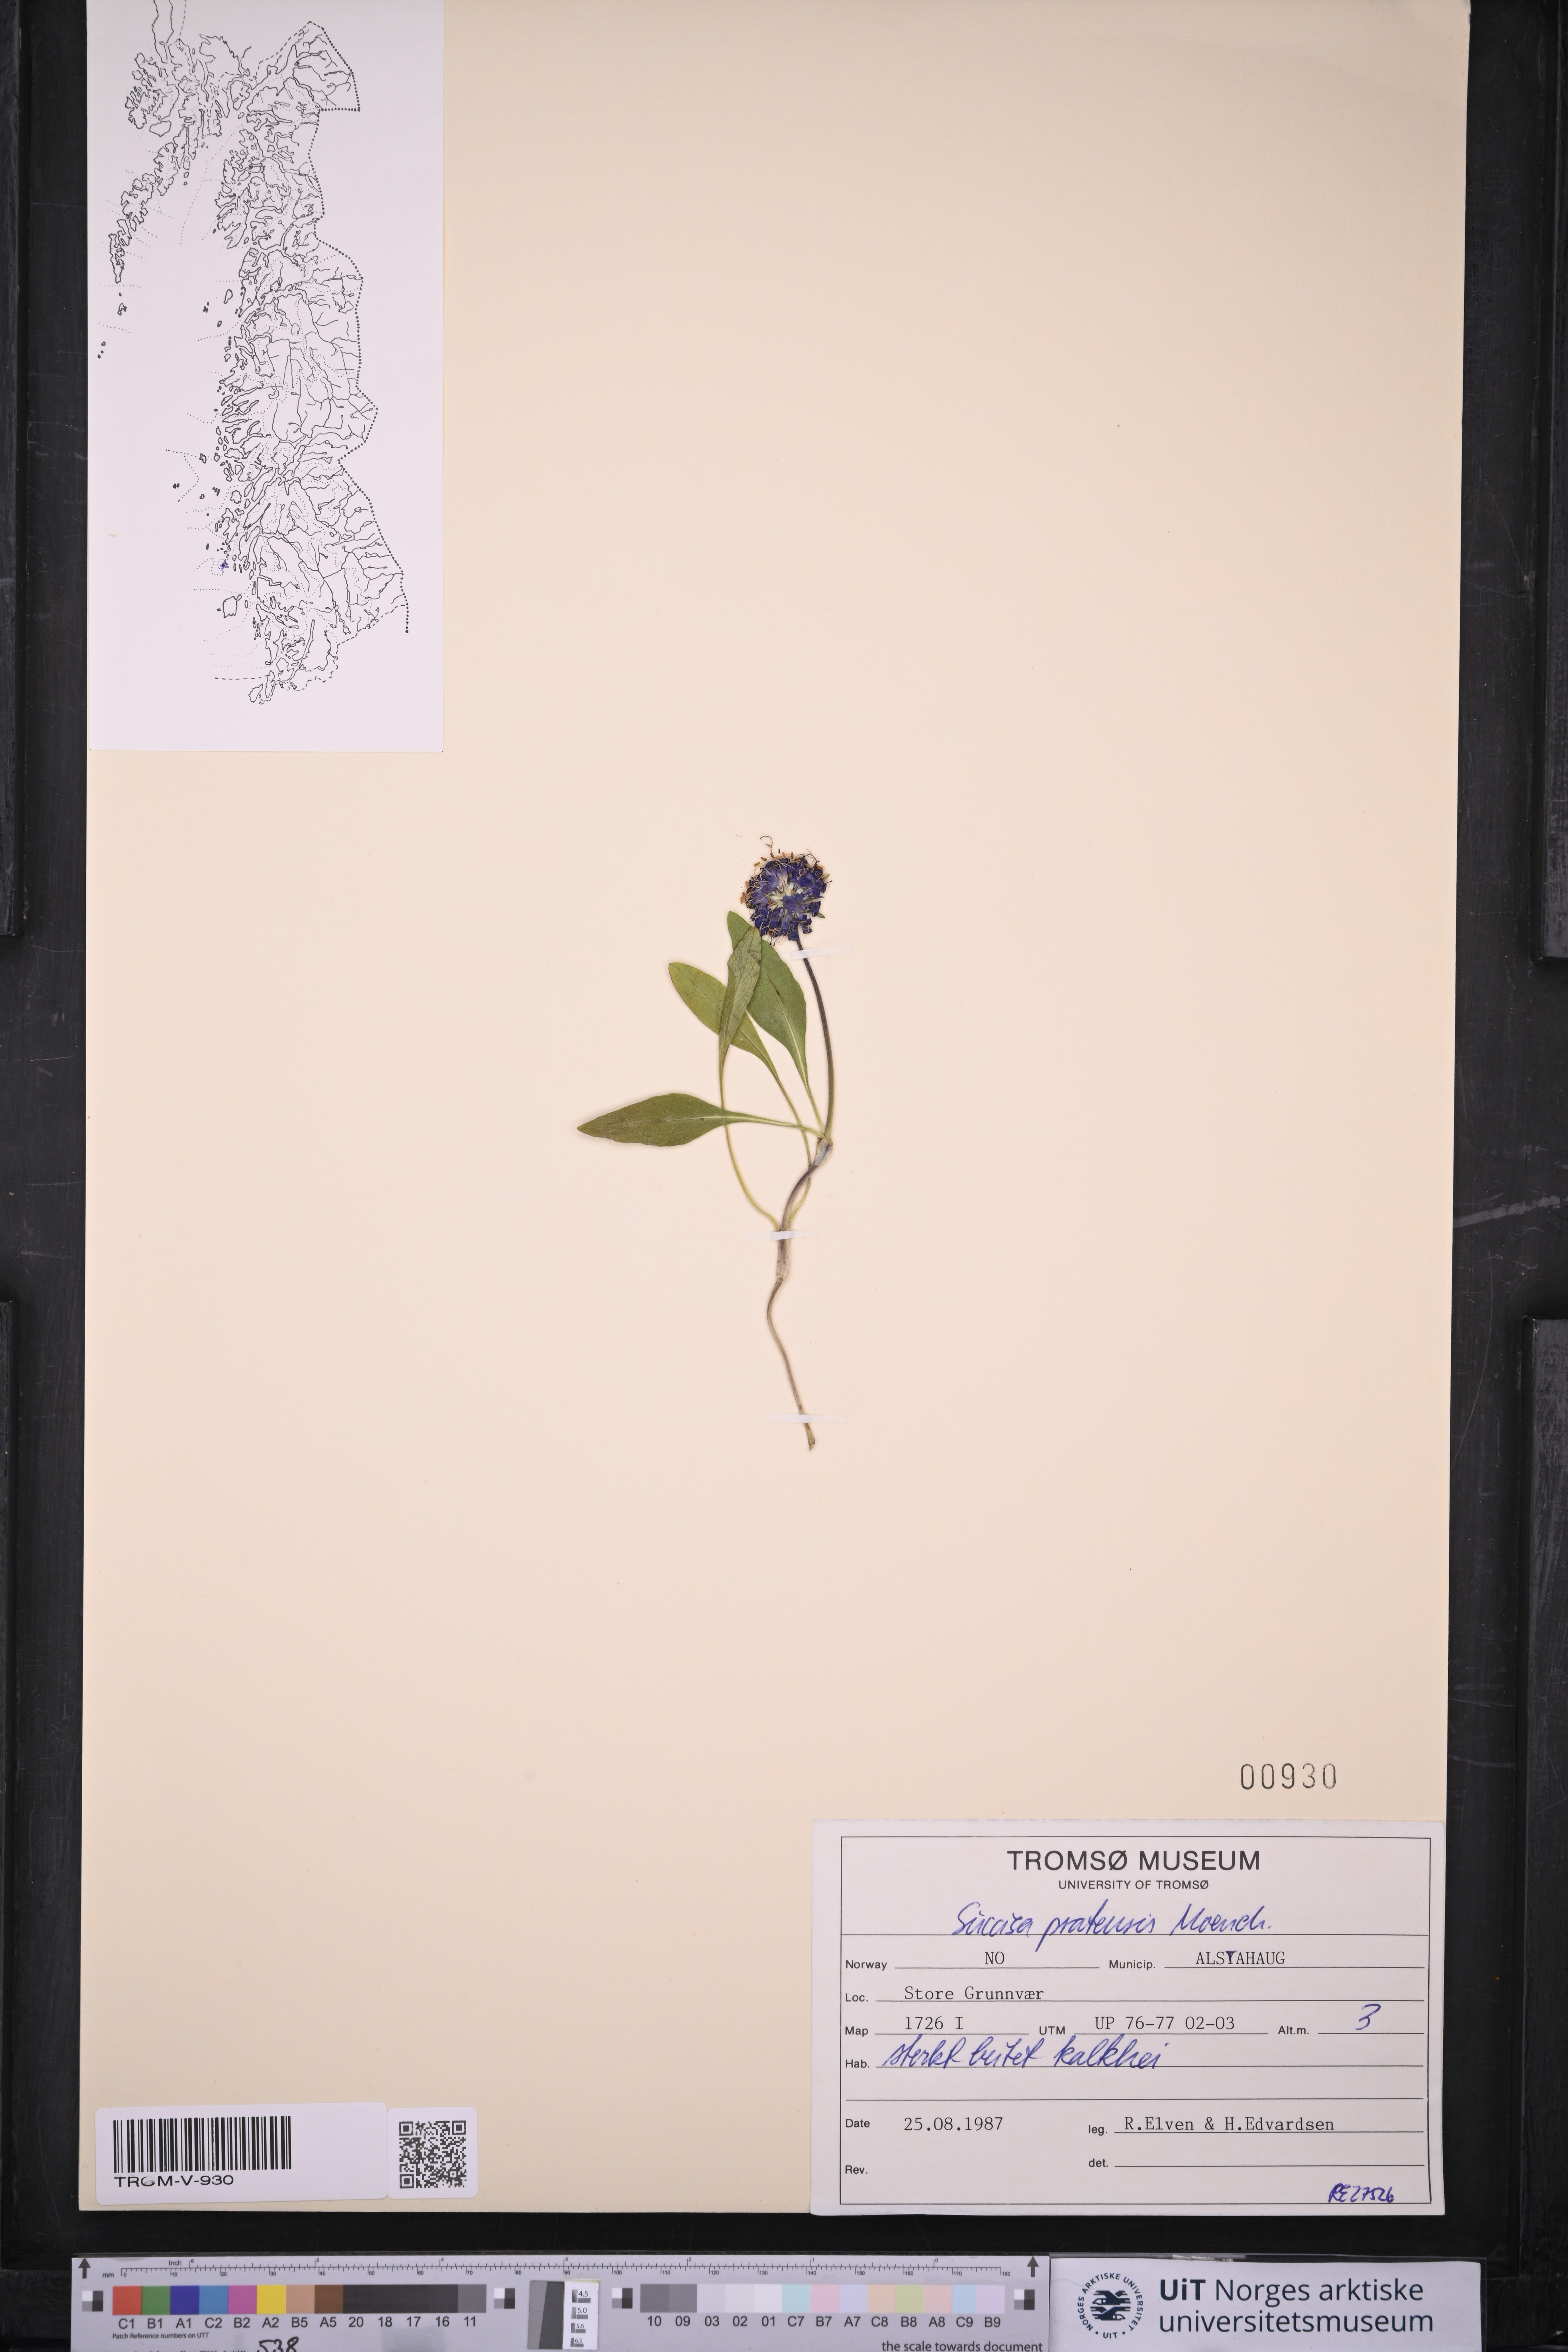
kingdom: Plantae
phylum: Tracheophyta
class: Magnoliopsida
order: Dipsacales
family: Caprifoliaceae
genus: Succisa
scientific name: Succisa pratensis
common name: Devil's-bit
